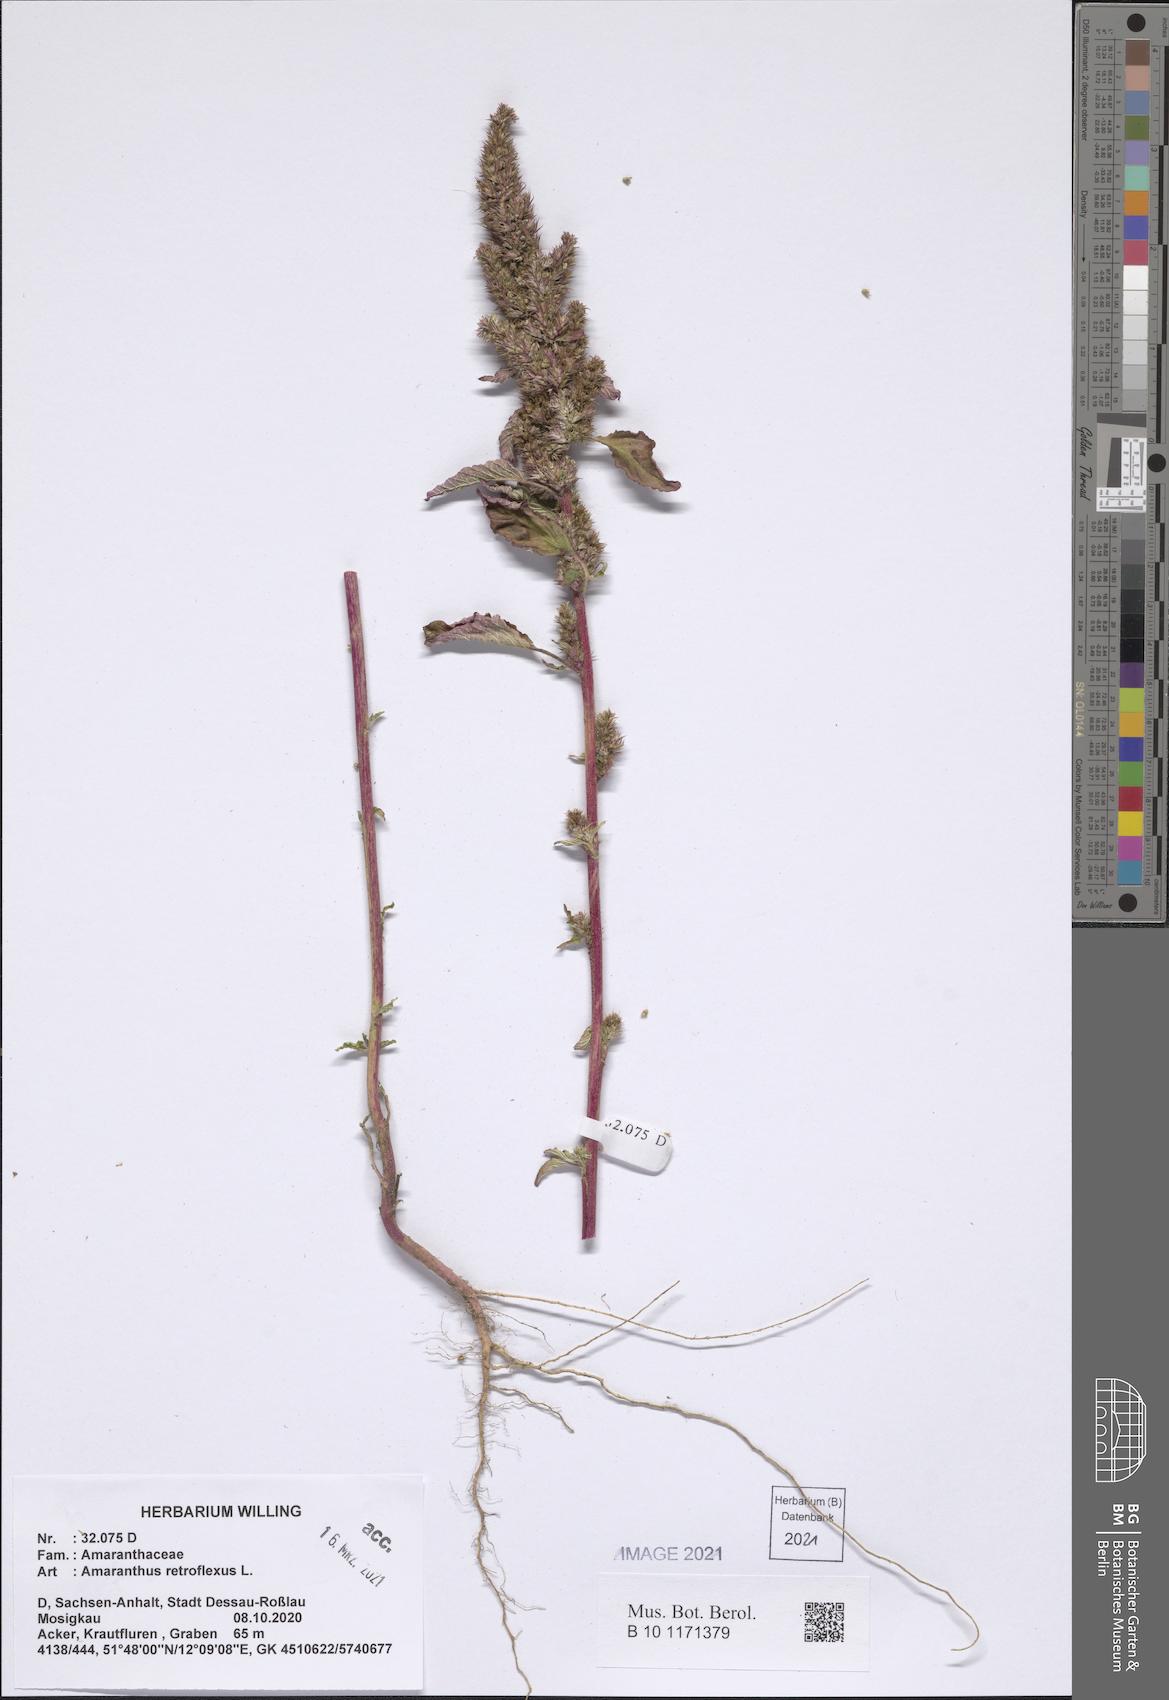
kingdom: Plantae
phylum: Tracheophyta
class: Magnoliopsida
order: Caryophyllales
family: Amaranthaceae
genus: Amaranthus
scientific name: Amaranthus retroflexus
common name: Redroot amaranth
